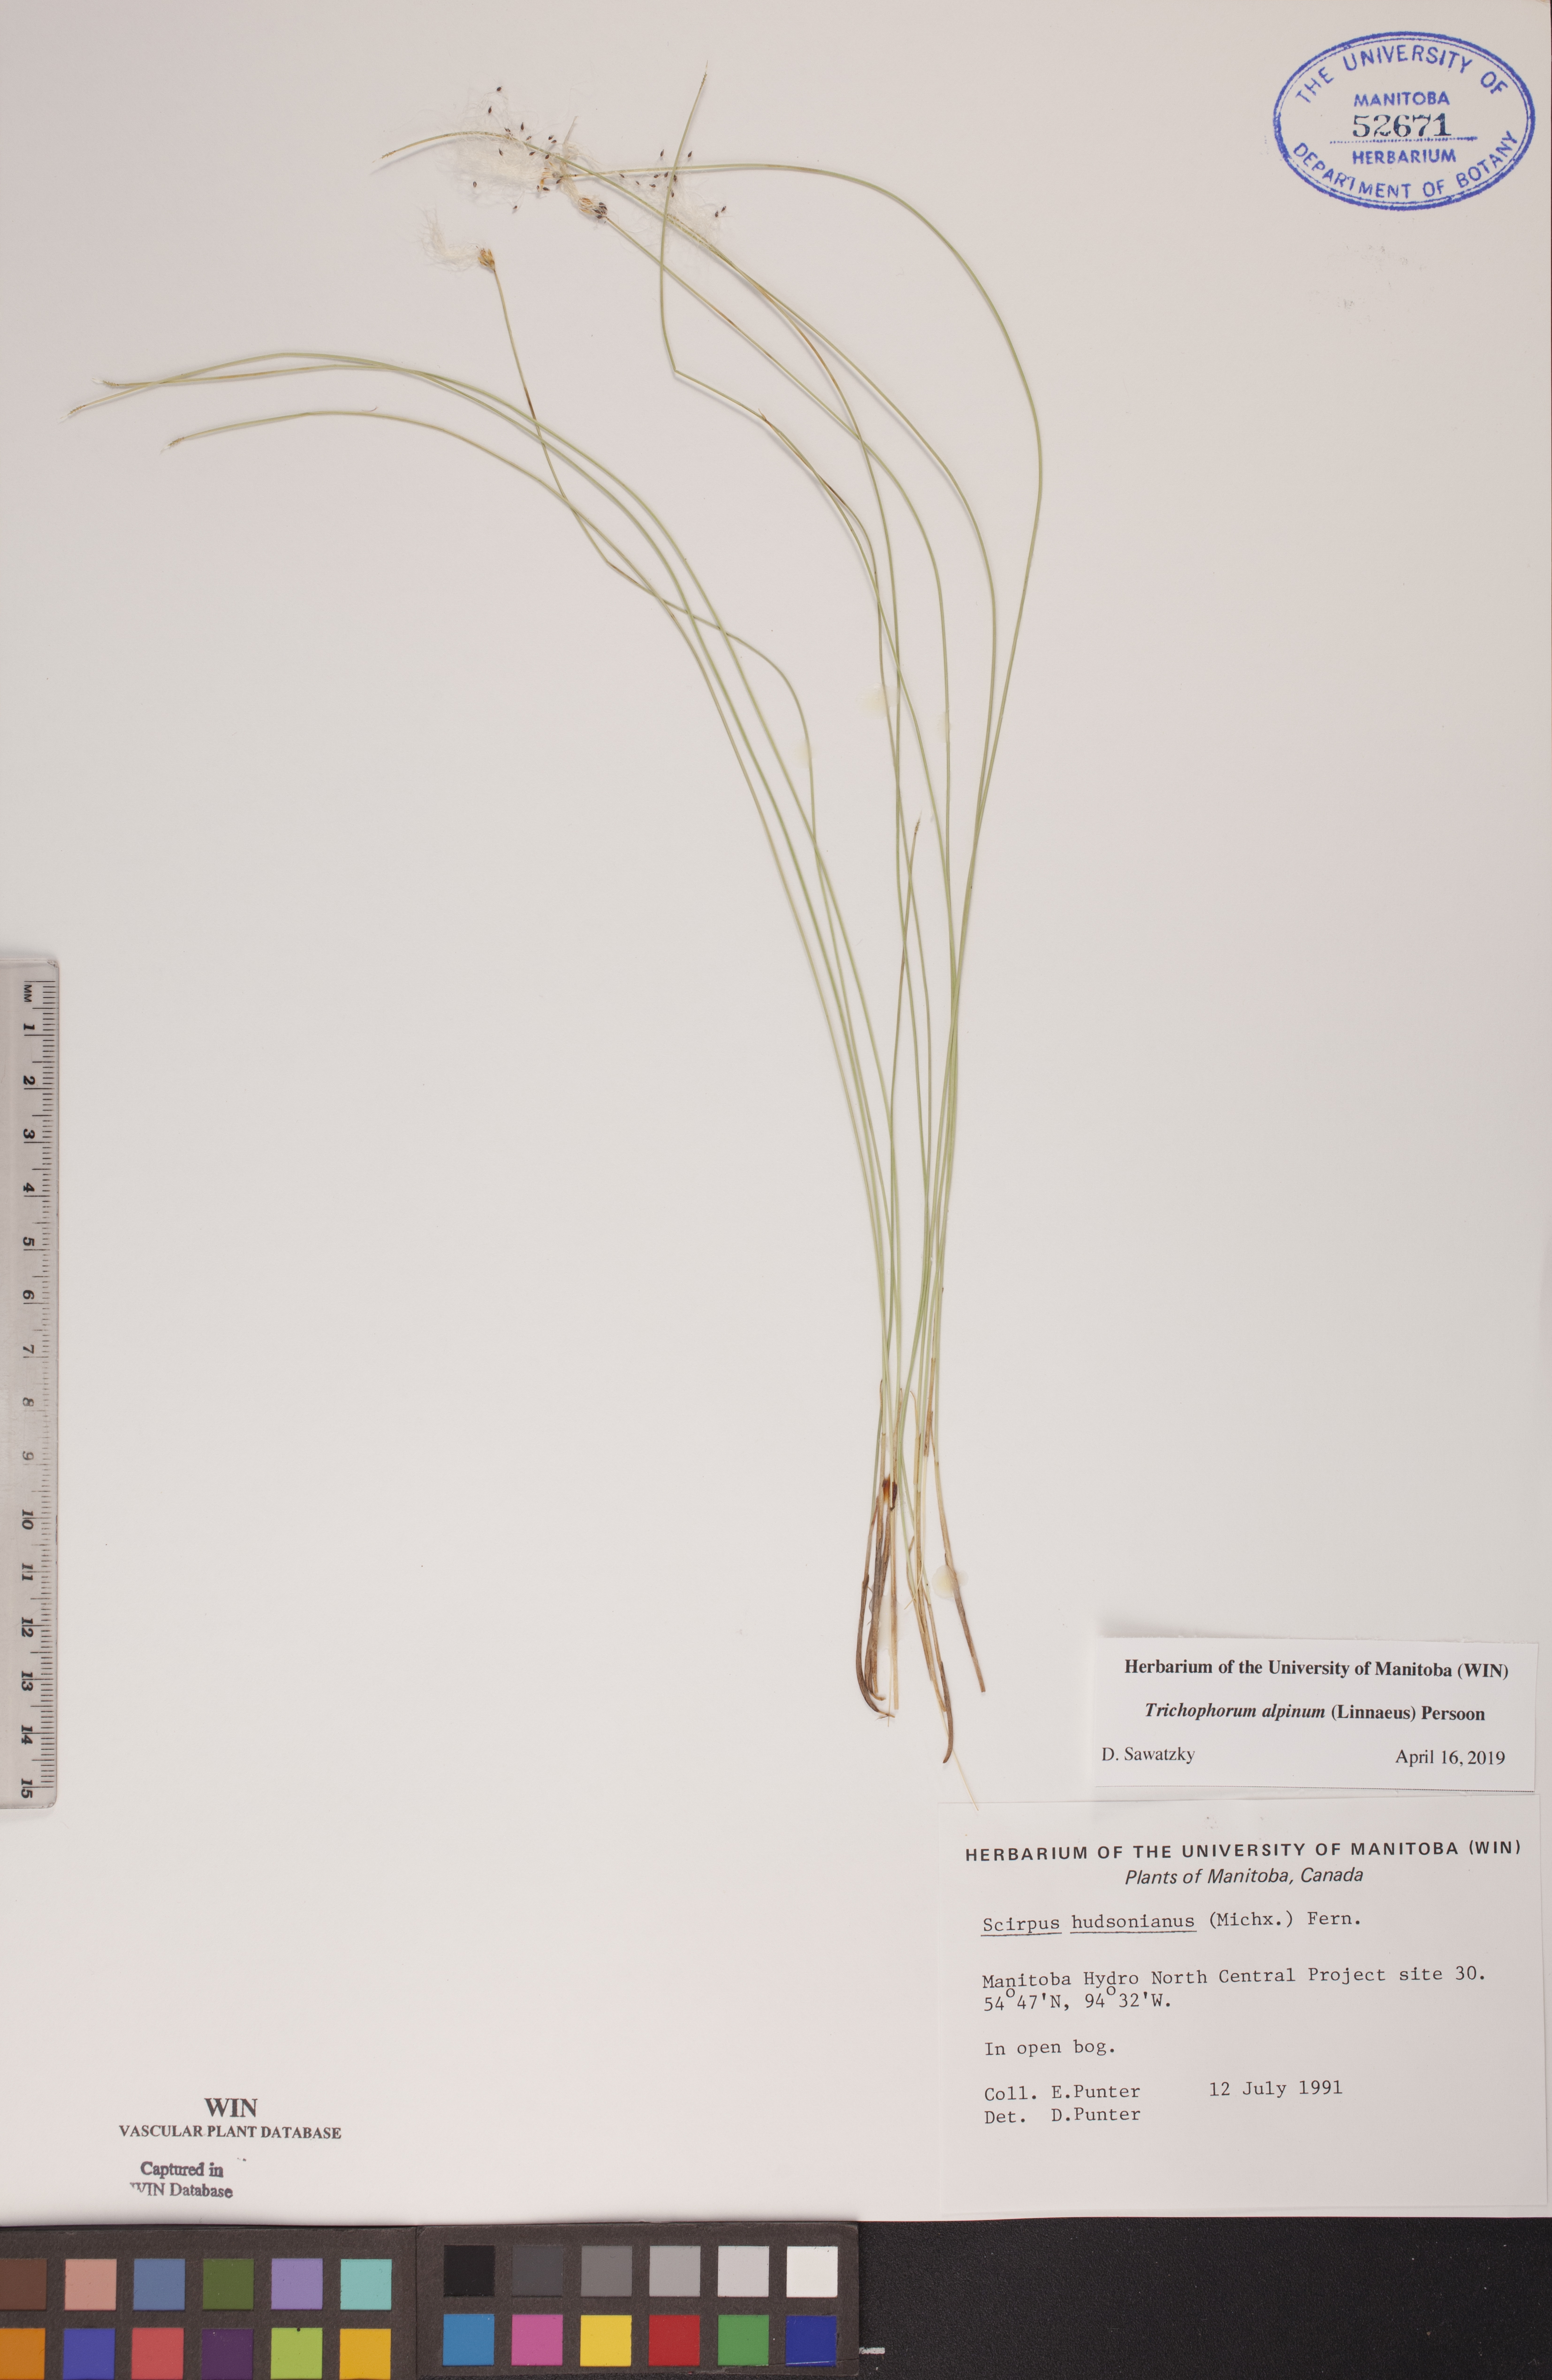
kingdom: Plantae
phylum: Tracheophyta
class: Liliopsida
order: Poales
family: Cyperaceae
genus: Trichophorum
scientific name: Trichophorum alpinum
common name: Alpine bulrush
